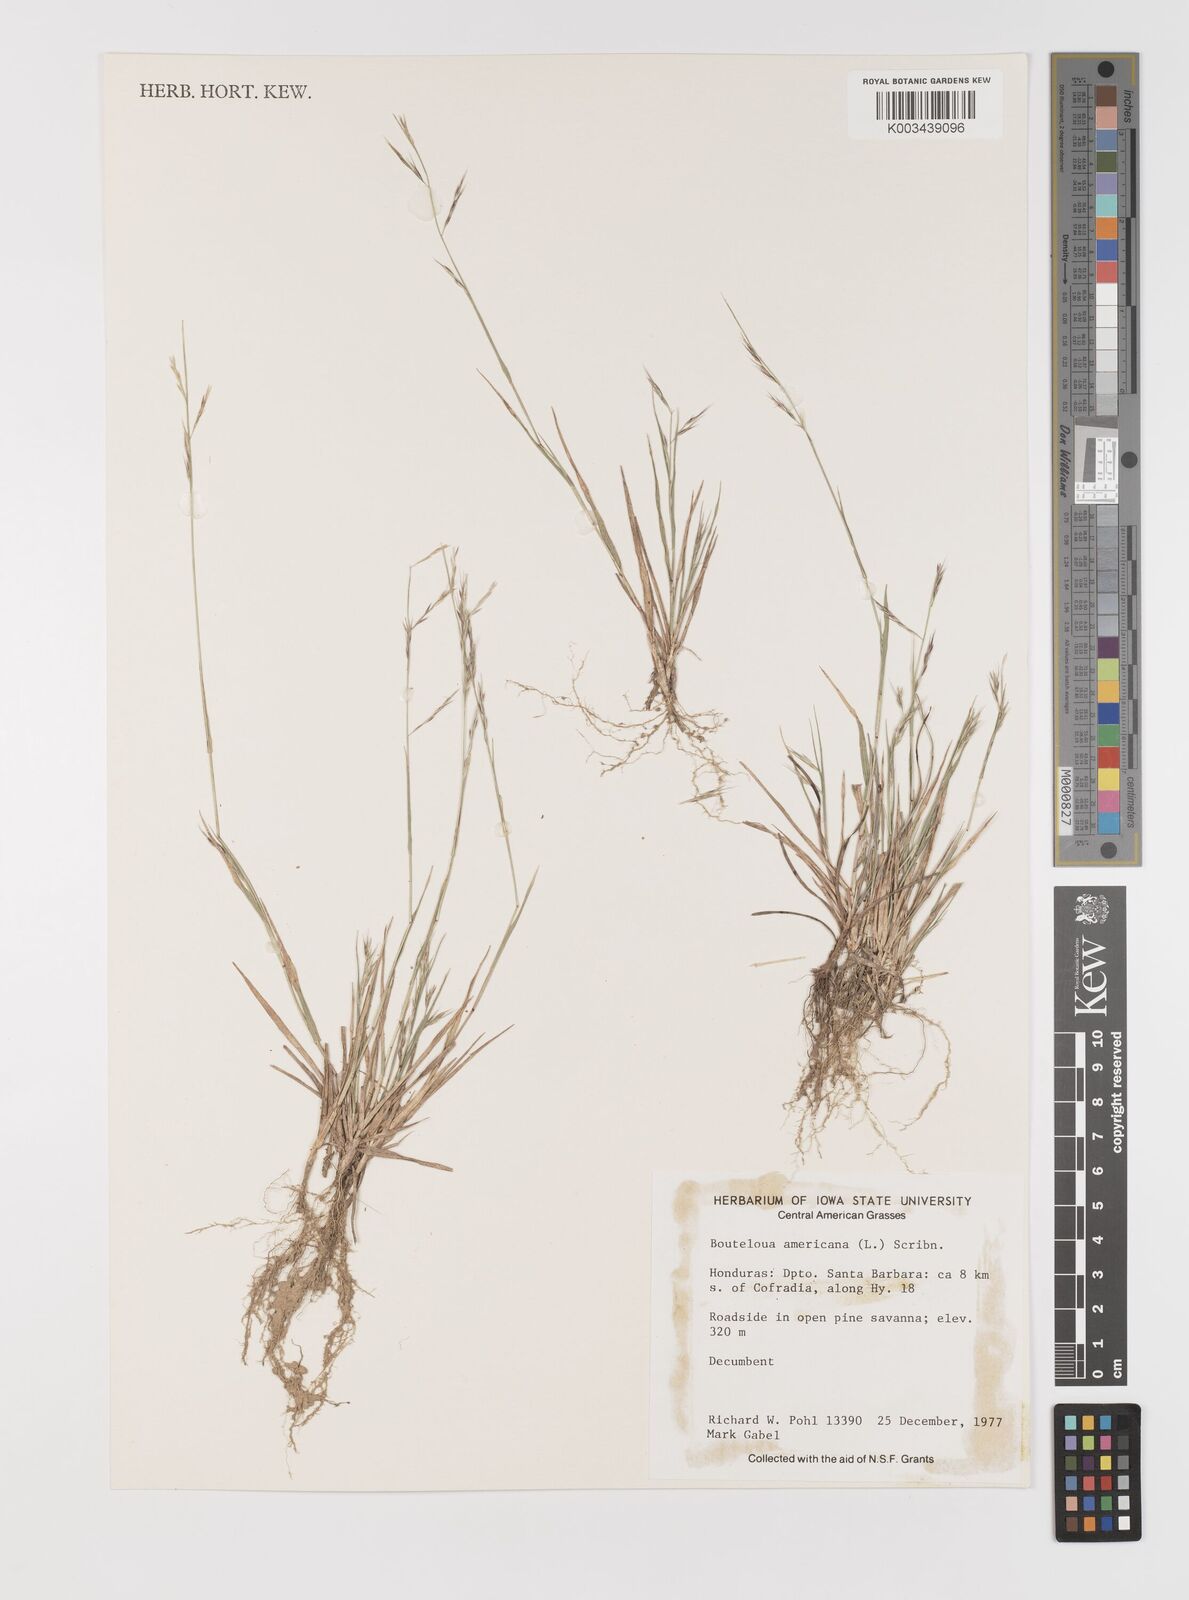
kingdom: Plantae
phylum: Tracheophyta
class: Liliopsida
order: Poales
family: Poaceae
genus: Bouteloua
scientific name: Bouteloua americana
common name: Mule grass
